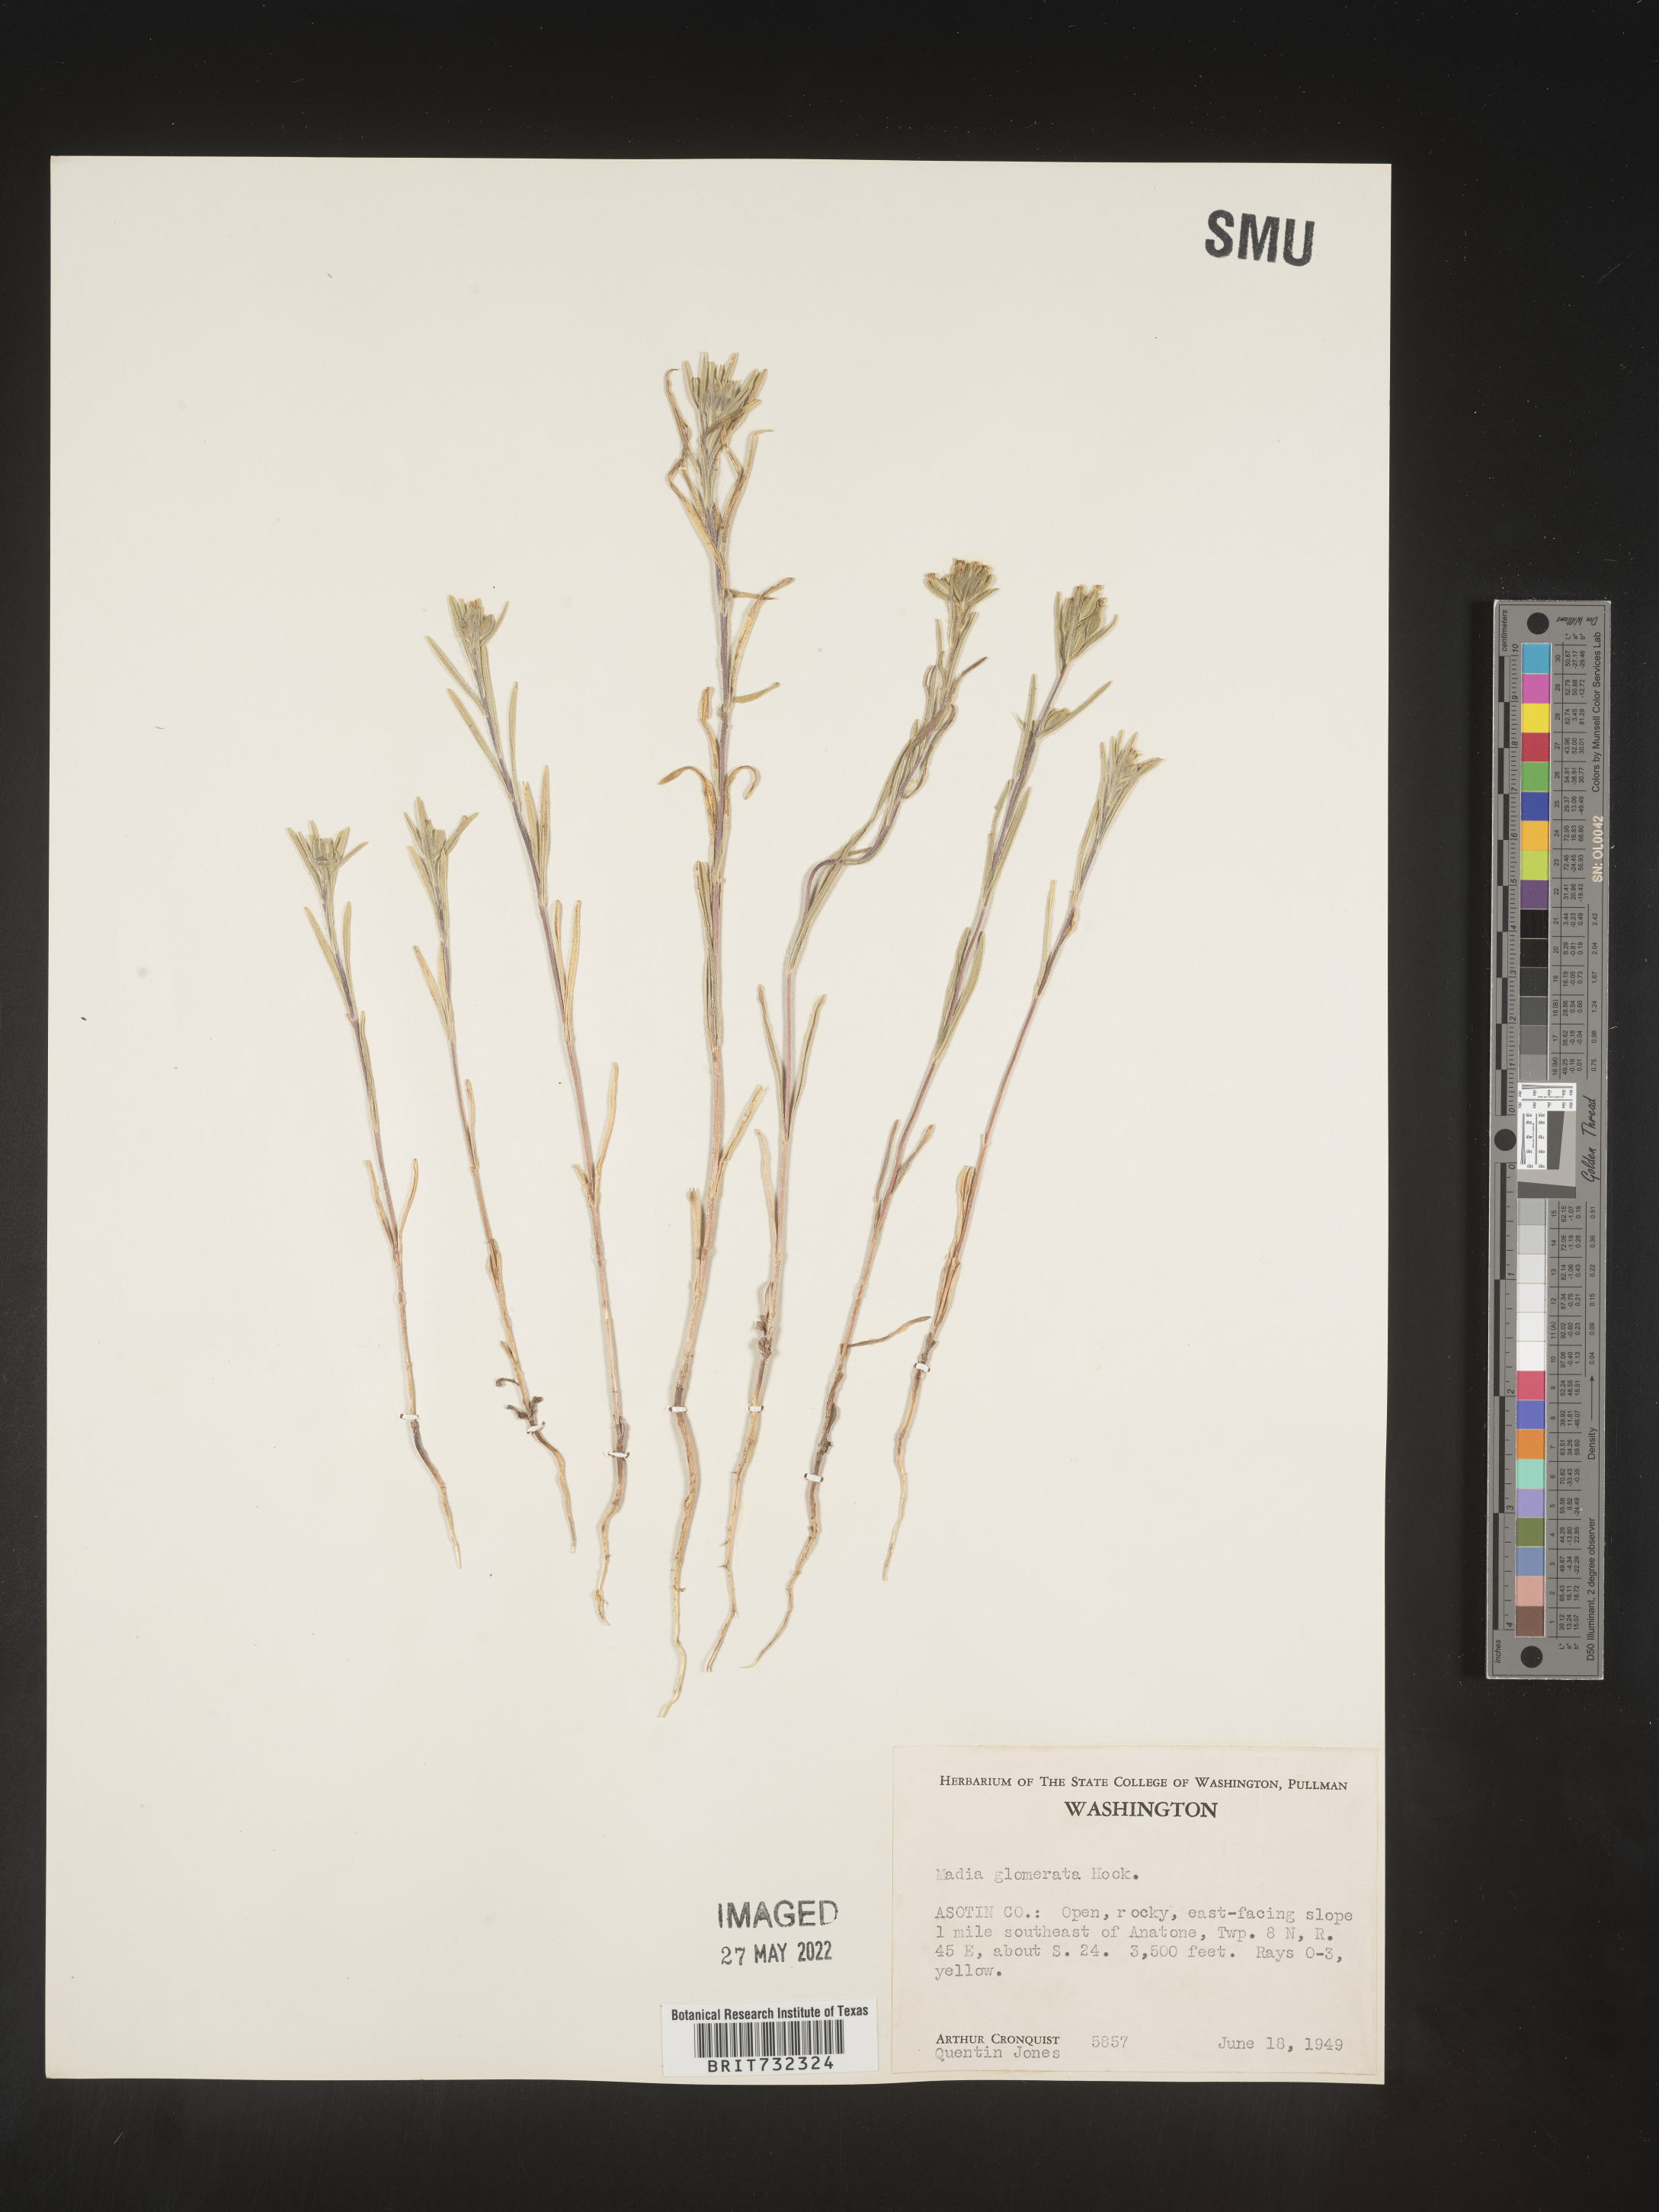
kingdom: Plantae
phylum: Tracheophyta
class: Magnoliopsida
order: Asterales
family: Asteraceae
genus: Madia
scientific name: Madia glomerata
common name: Mountain tarweed
